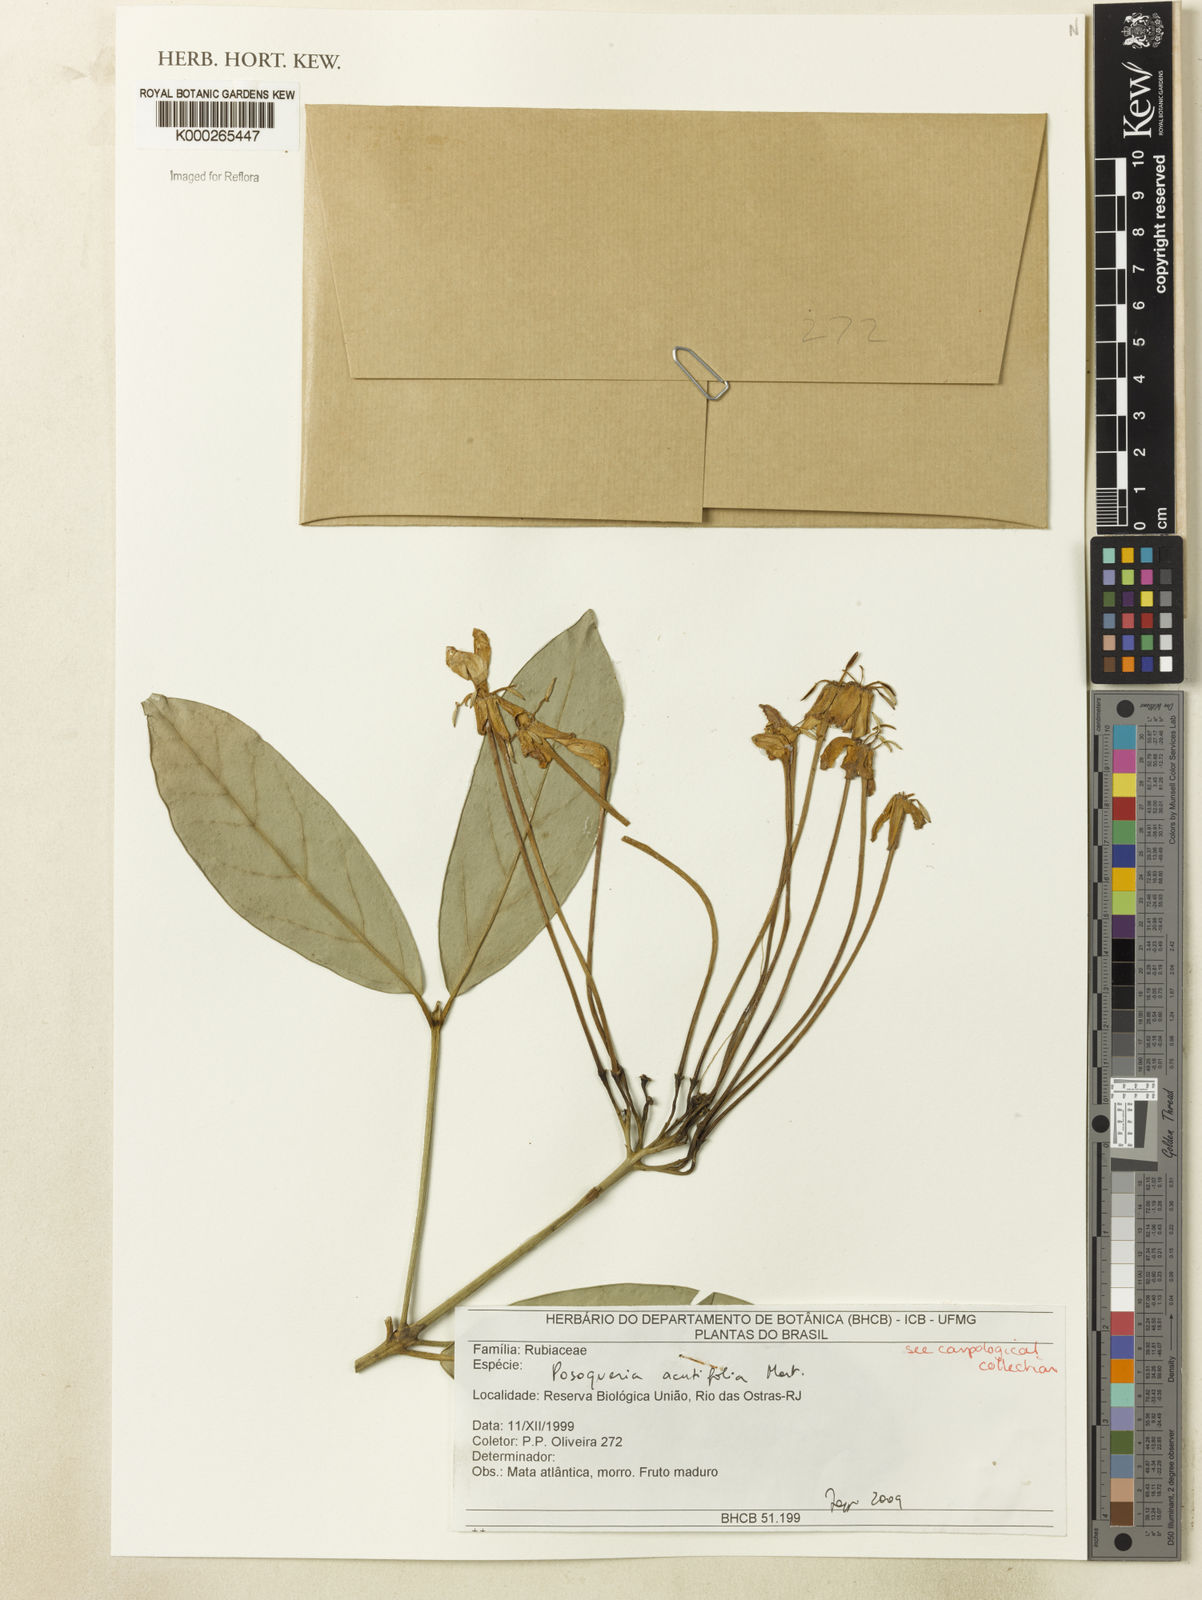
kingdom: Plantae
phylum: Tracheophyta
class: Magnoliopsida
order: Gentianales
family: Rubiaceae
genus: Posoqueria
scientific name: Posoqueria acutifolia
